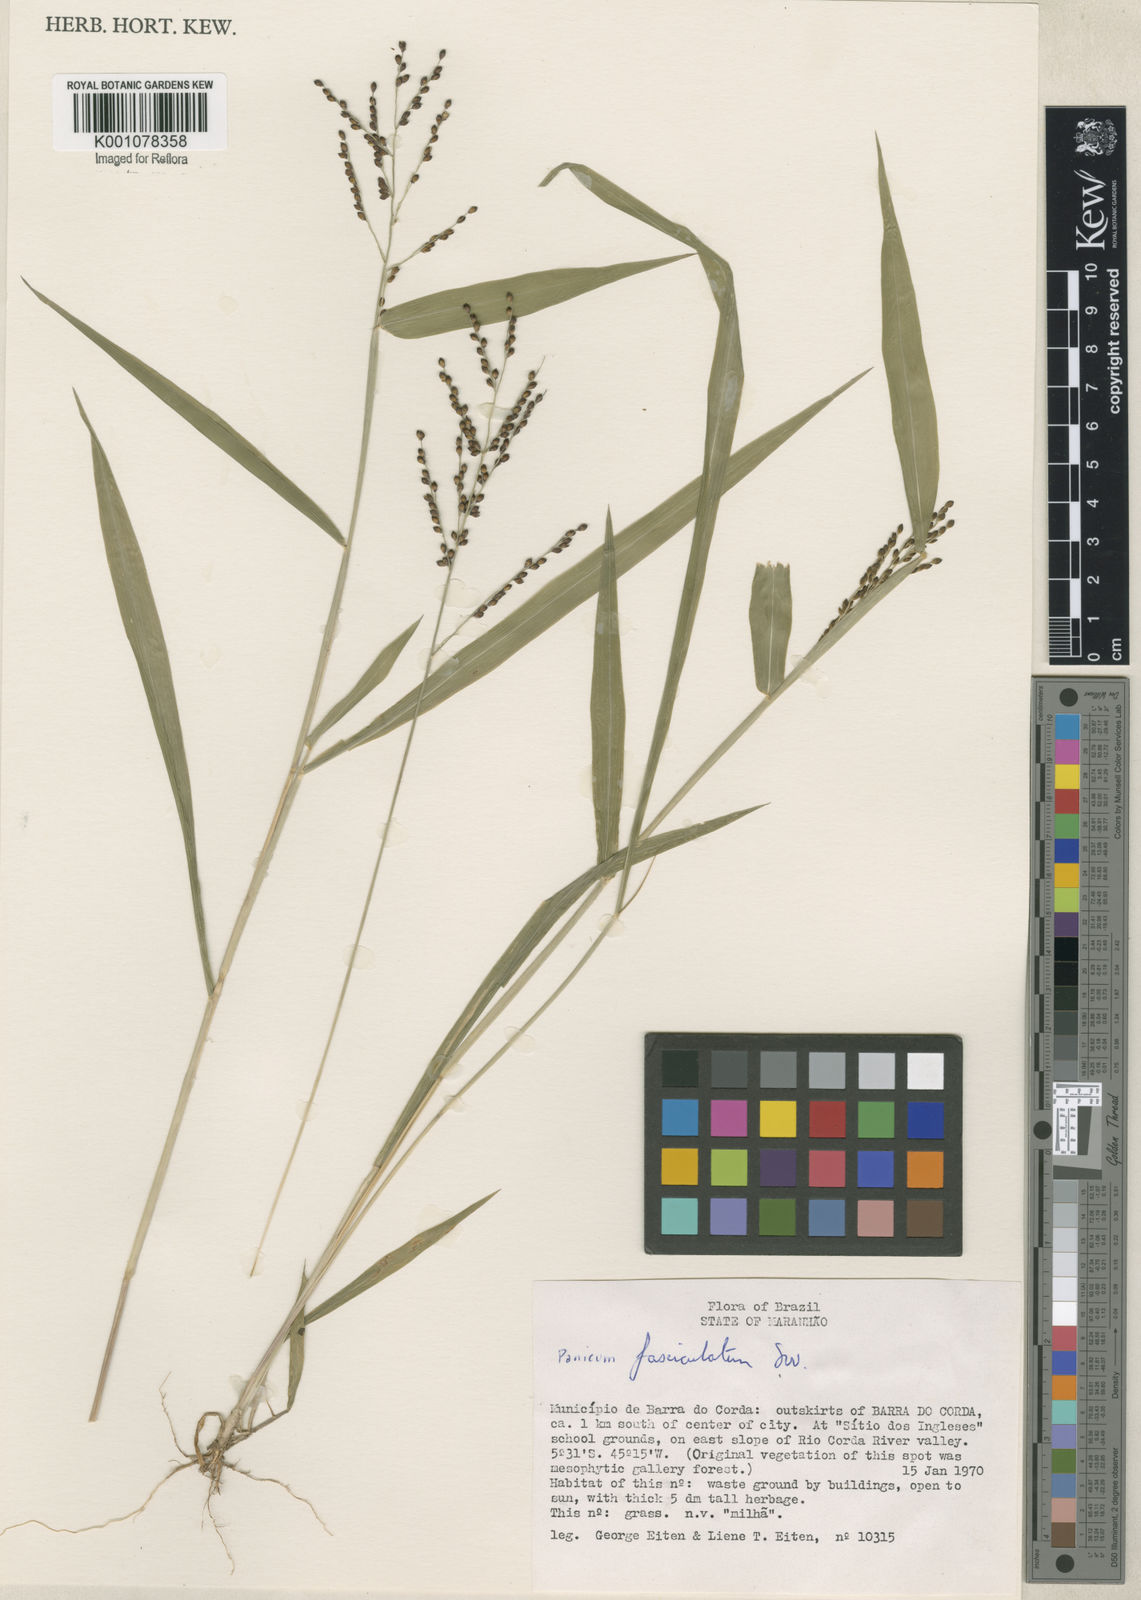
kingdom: Plantae
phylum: Tracheophyta
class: Liliopsida
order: Poales
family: Poaceae
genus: Urochloa
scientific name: Urochloa fusca
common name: Browntop signal grass
